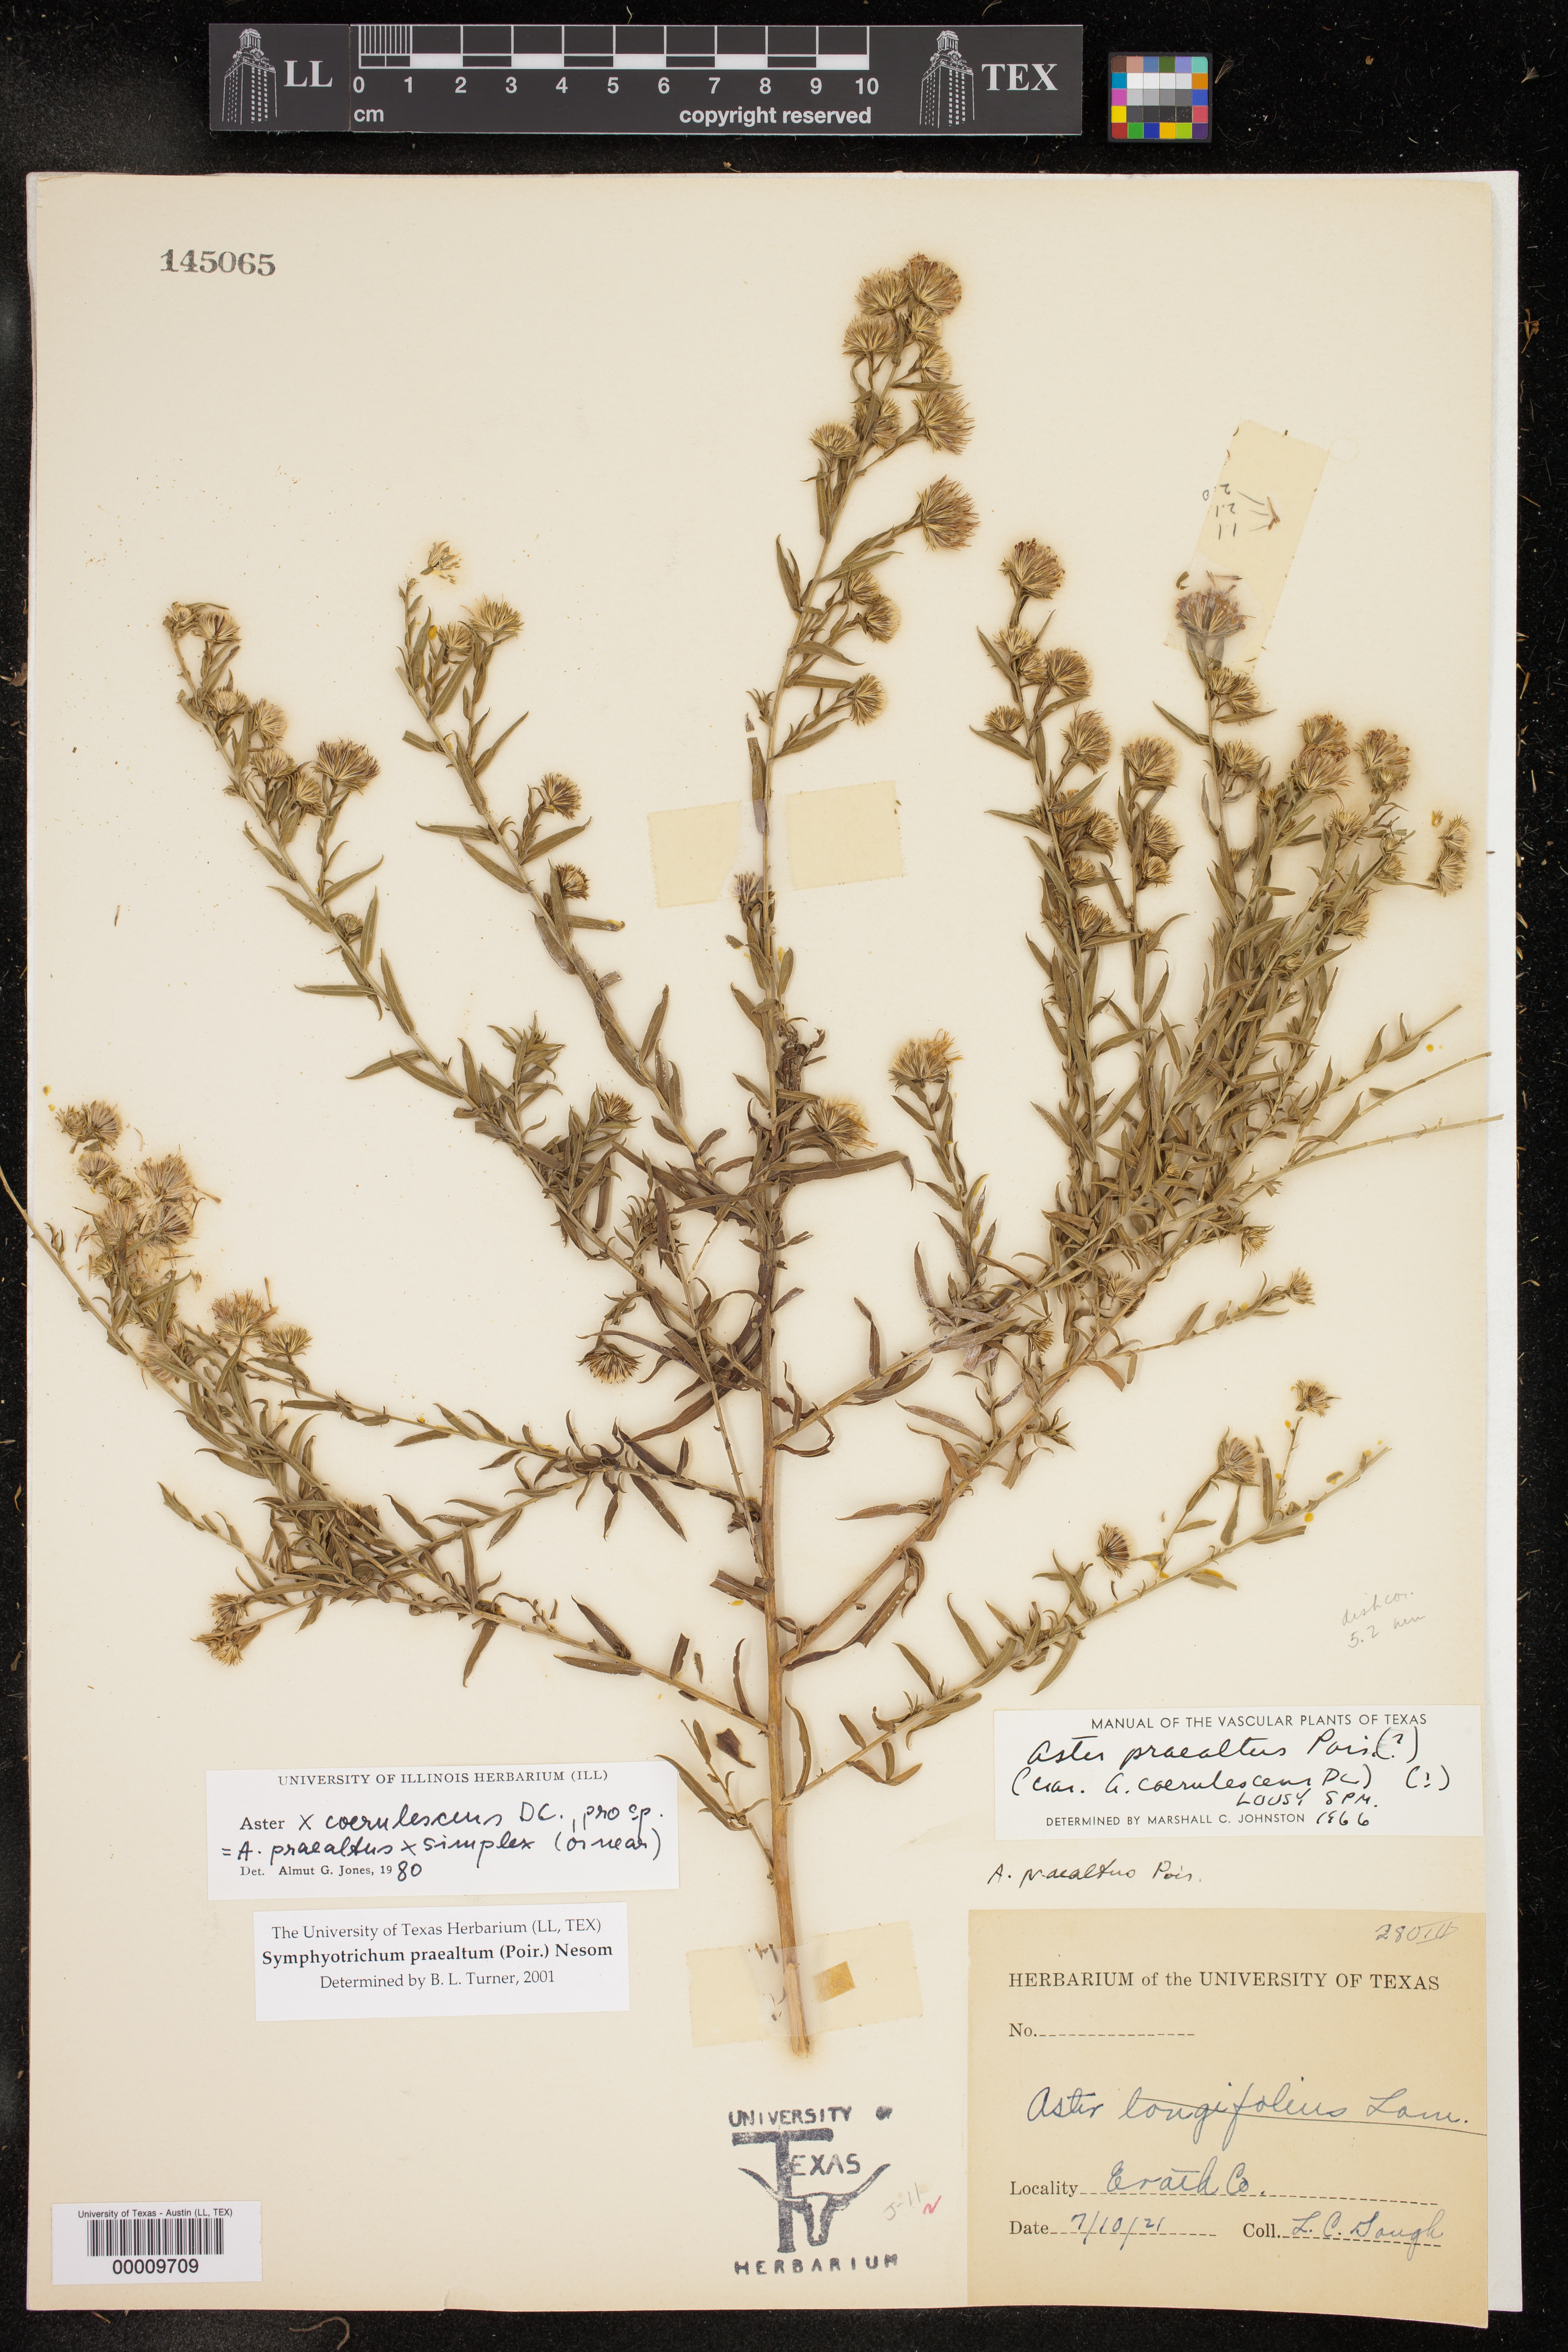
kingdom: Plantae
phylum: Tracheophyta
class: Magnoliopsida
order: Asterales
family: Asteraceae
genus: Symphyotrichum
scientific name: Symphyotrichum praealtum
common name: Willow aster
